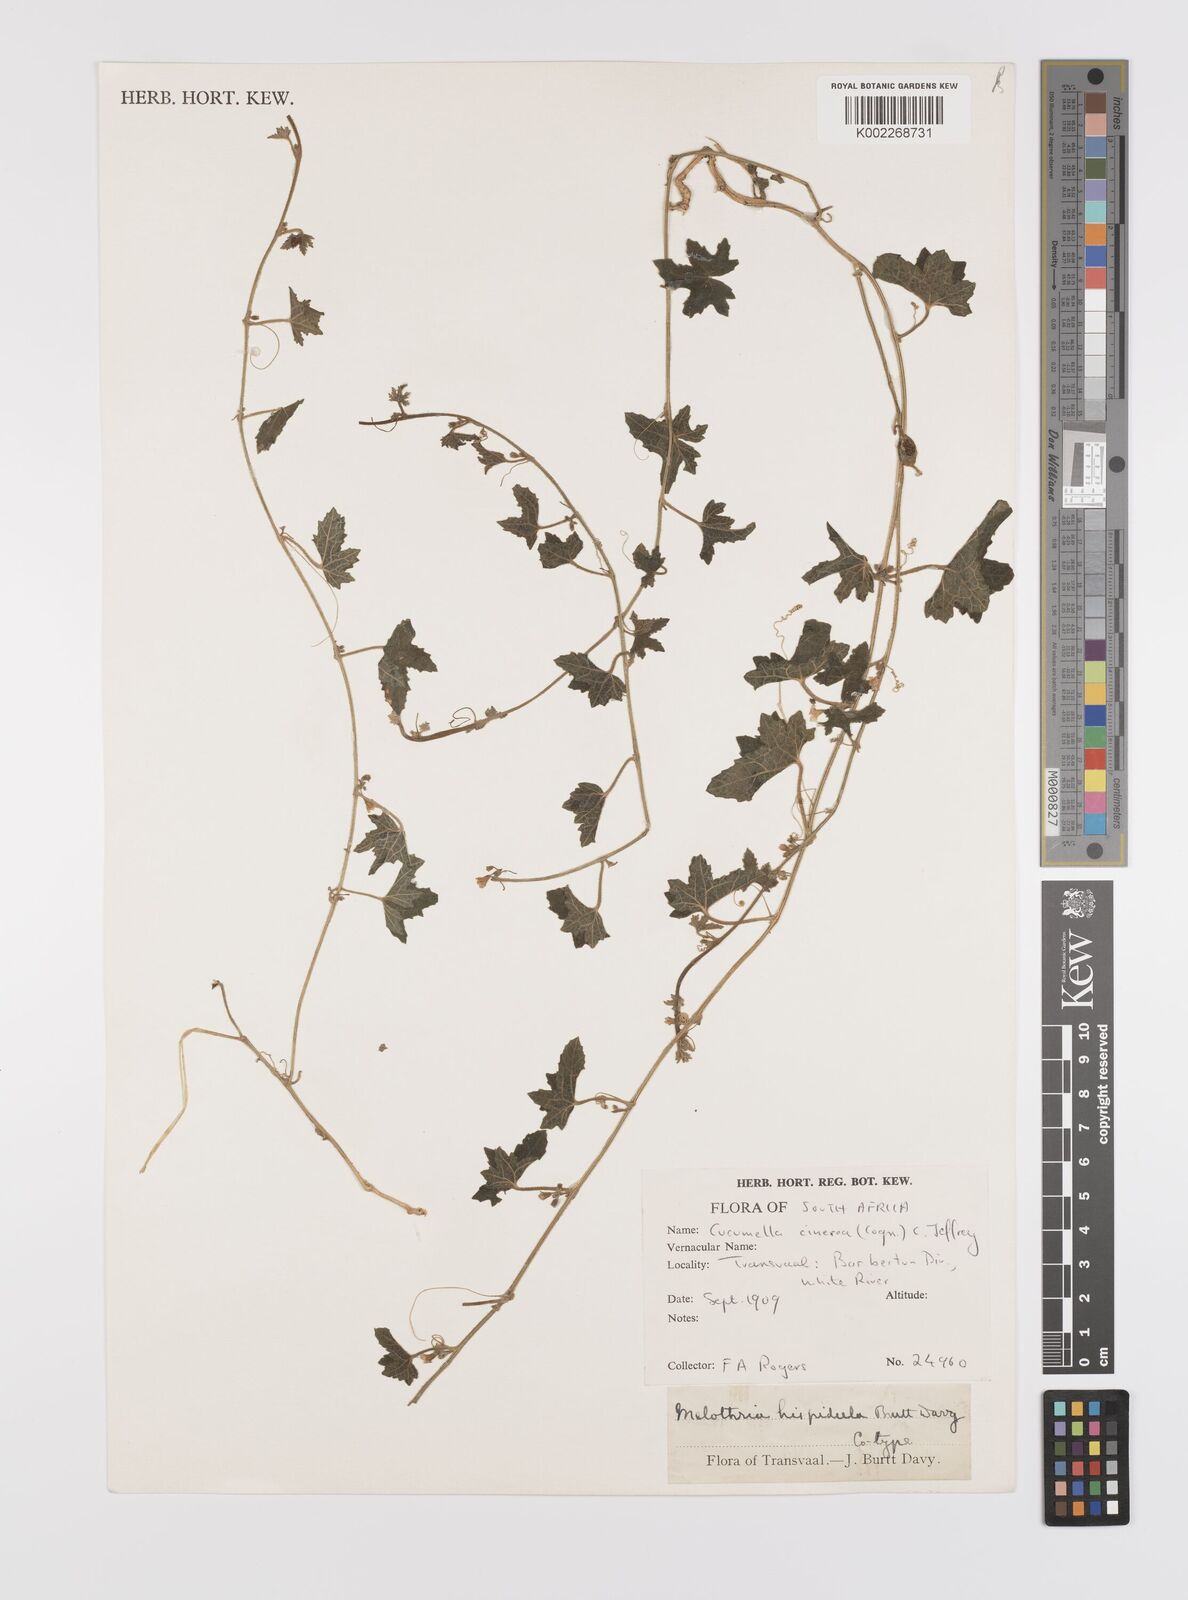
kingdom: Plantae
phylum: Tracheophyta
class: Magnoliopsida
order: Cucurbitales
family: Cucurbitaceae
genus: Cucumis
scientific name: Cucumis cinereus
